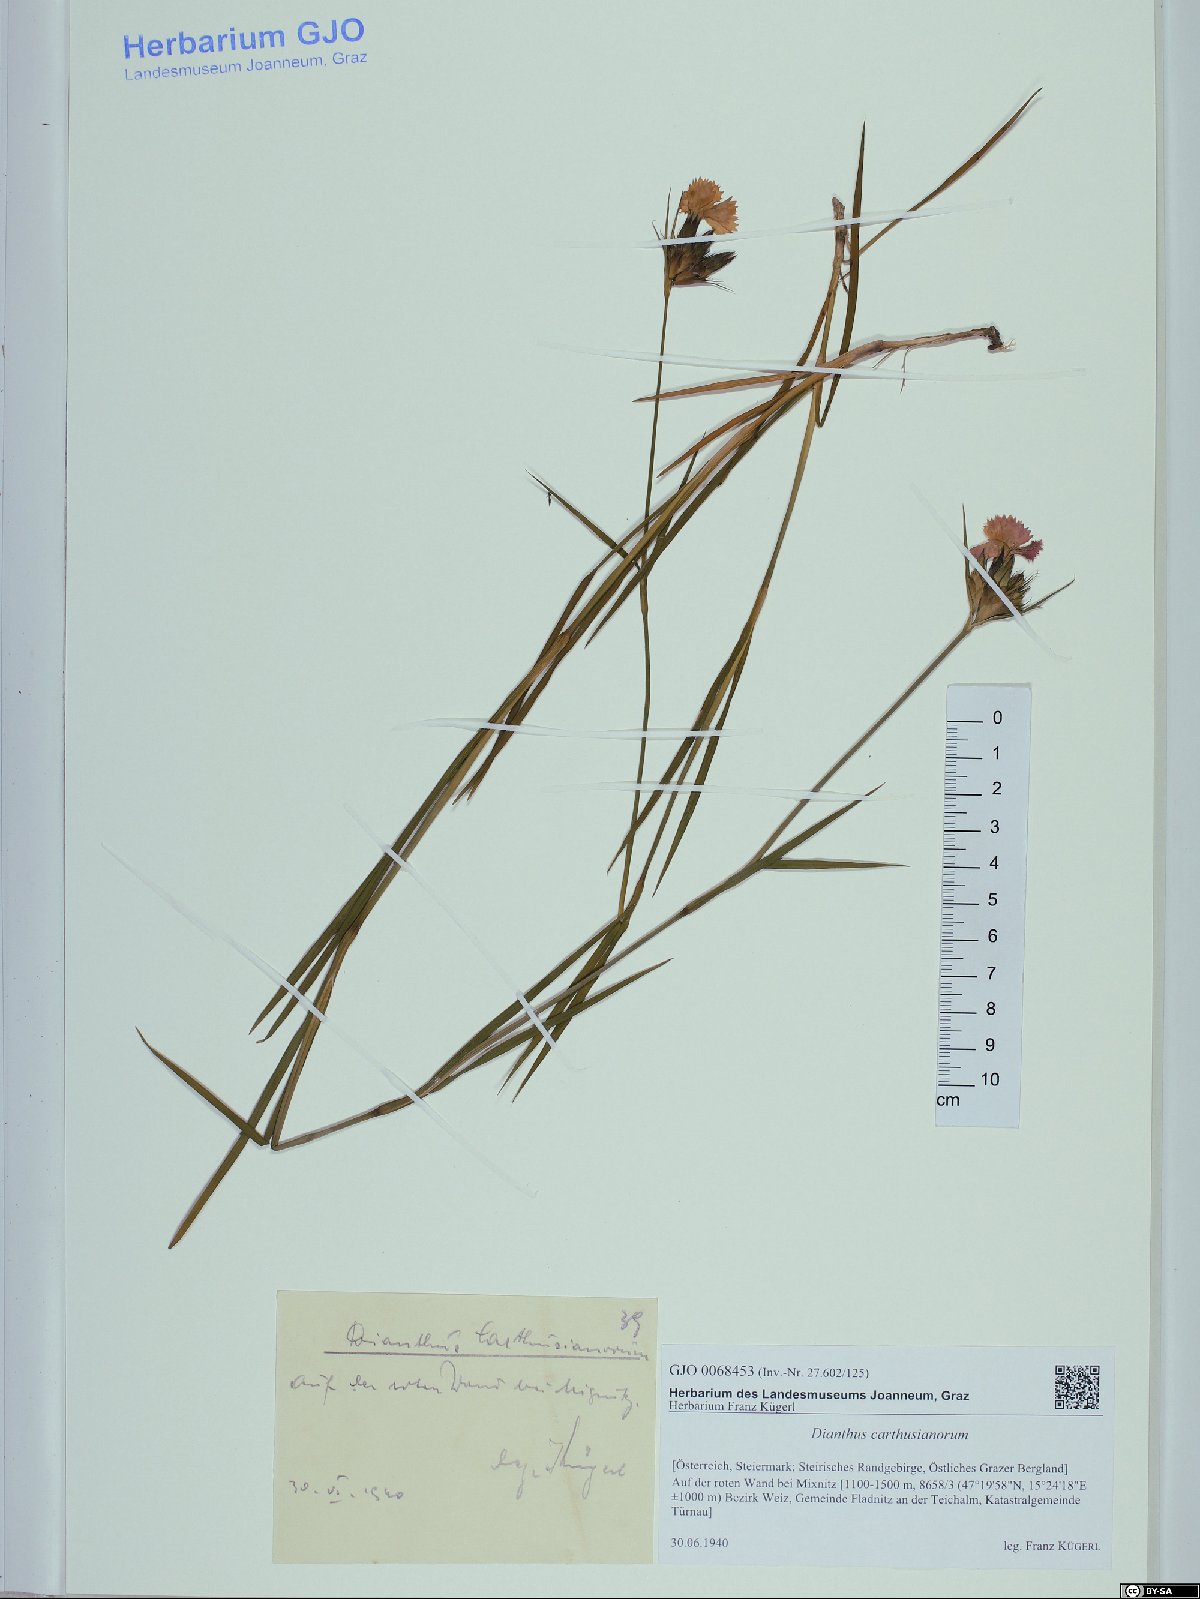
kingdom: Plantae
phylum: Tracheophyta
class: Magnoliopsida
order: Caryophyllales
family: Caryophyllaceae
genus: Dianthus
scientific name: Dianthus carthusianorum
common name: Carthusian pink
